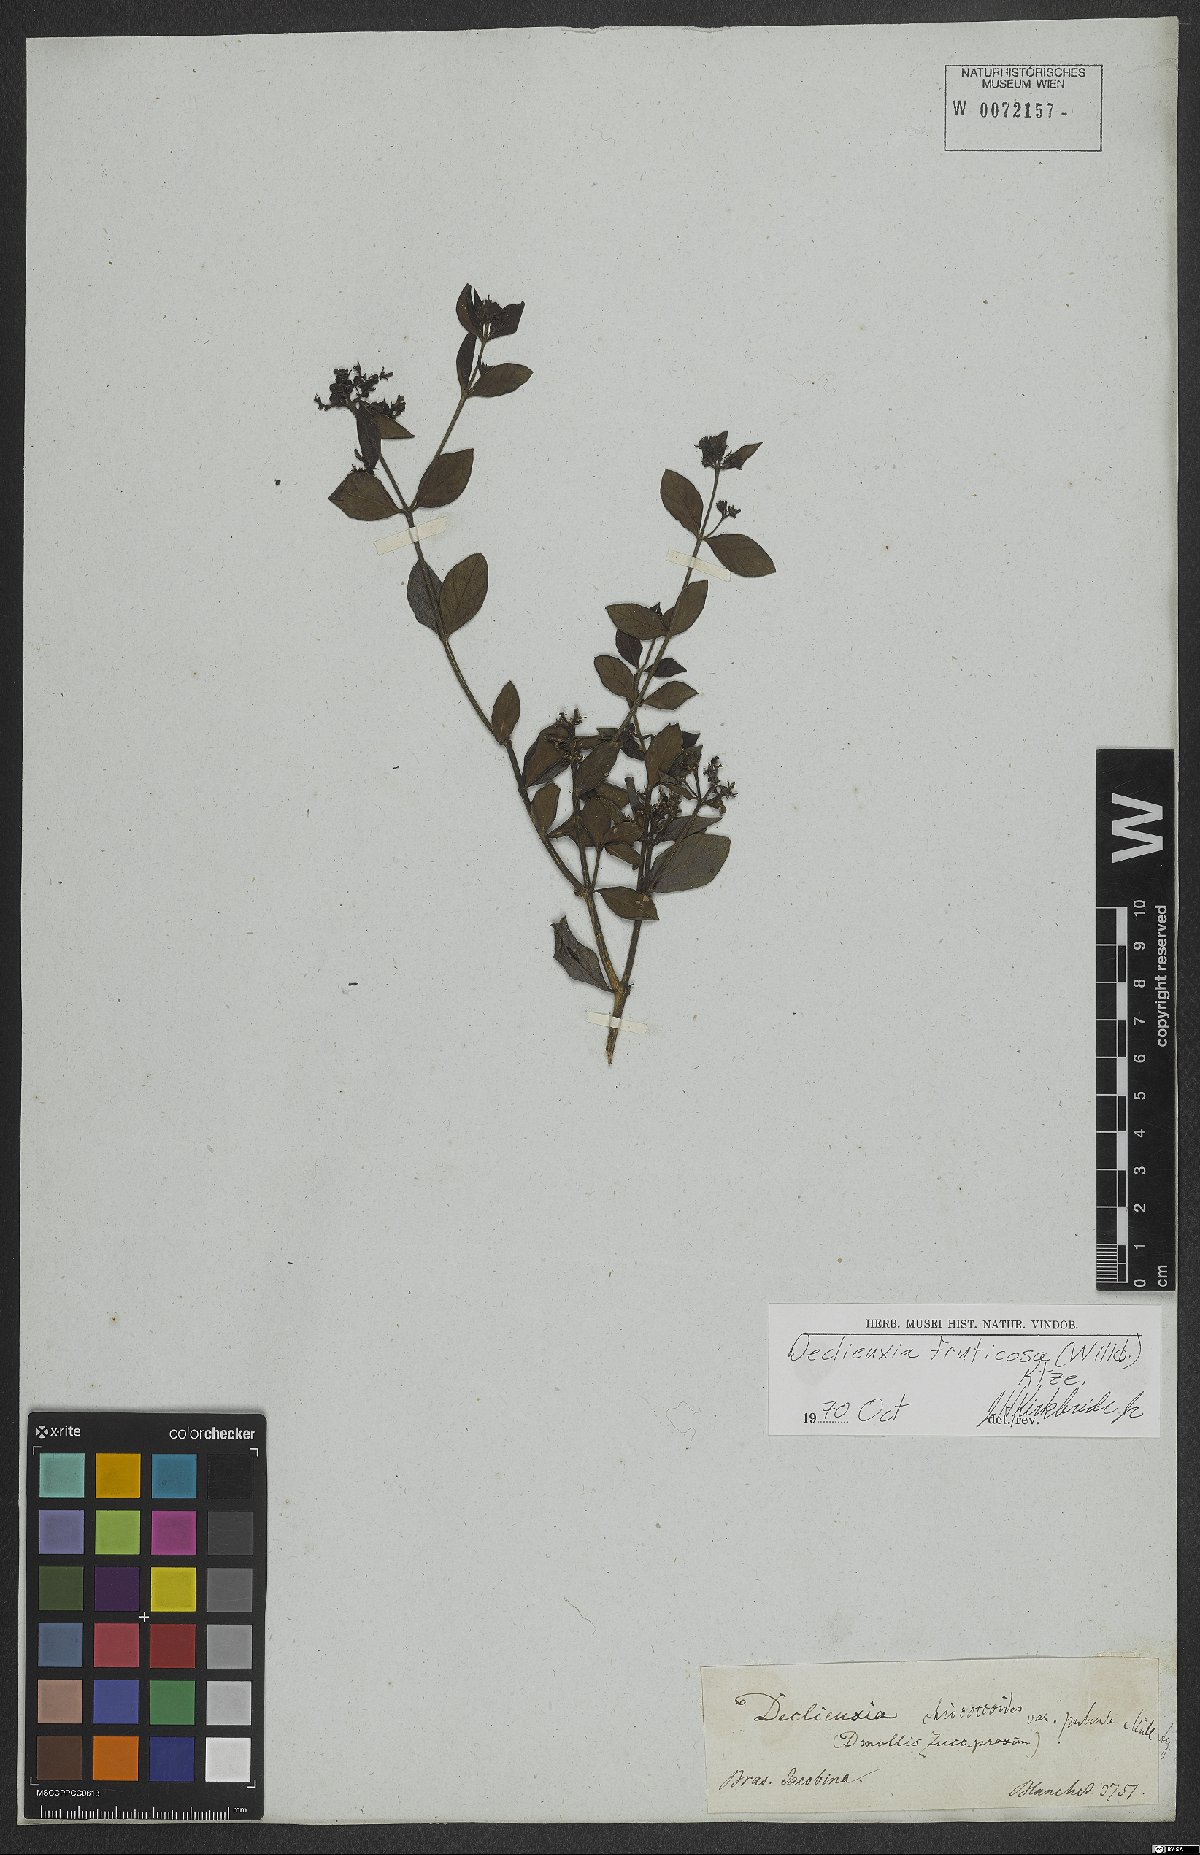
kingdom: Plantae
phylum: Tracheophyta
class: Magnoliopsida
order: Gentianales
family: Rubiaceae
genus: Declieuxia
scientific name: Declieuxia fruticosa
